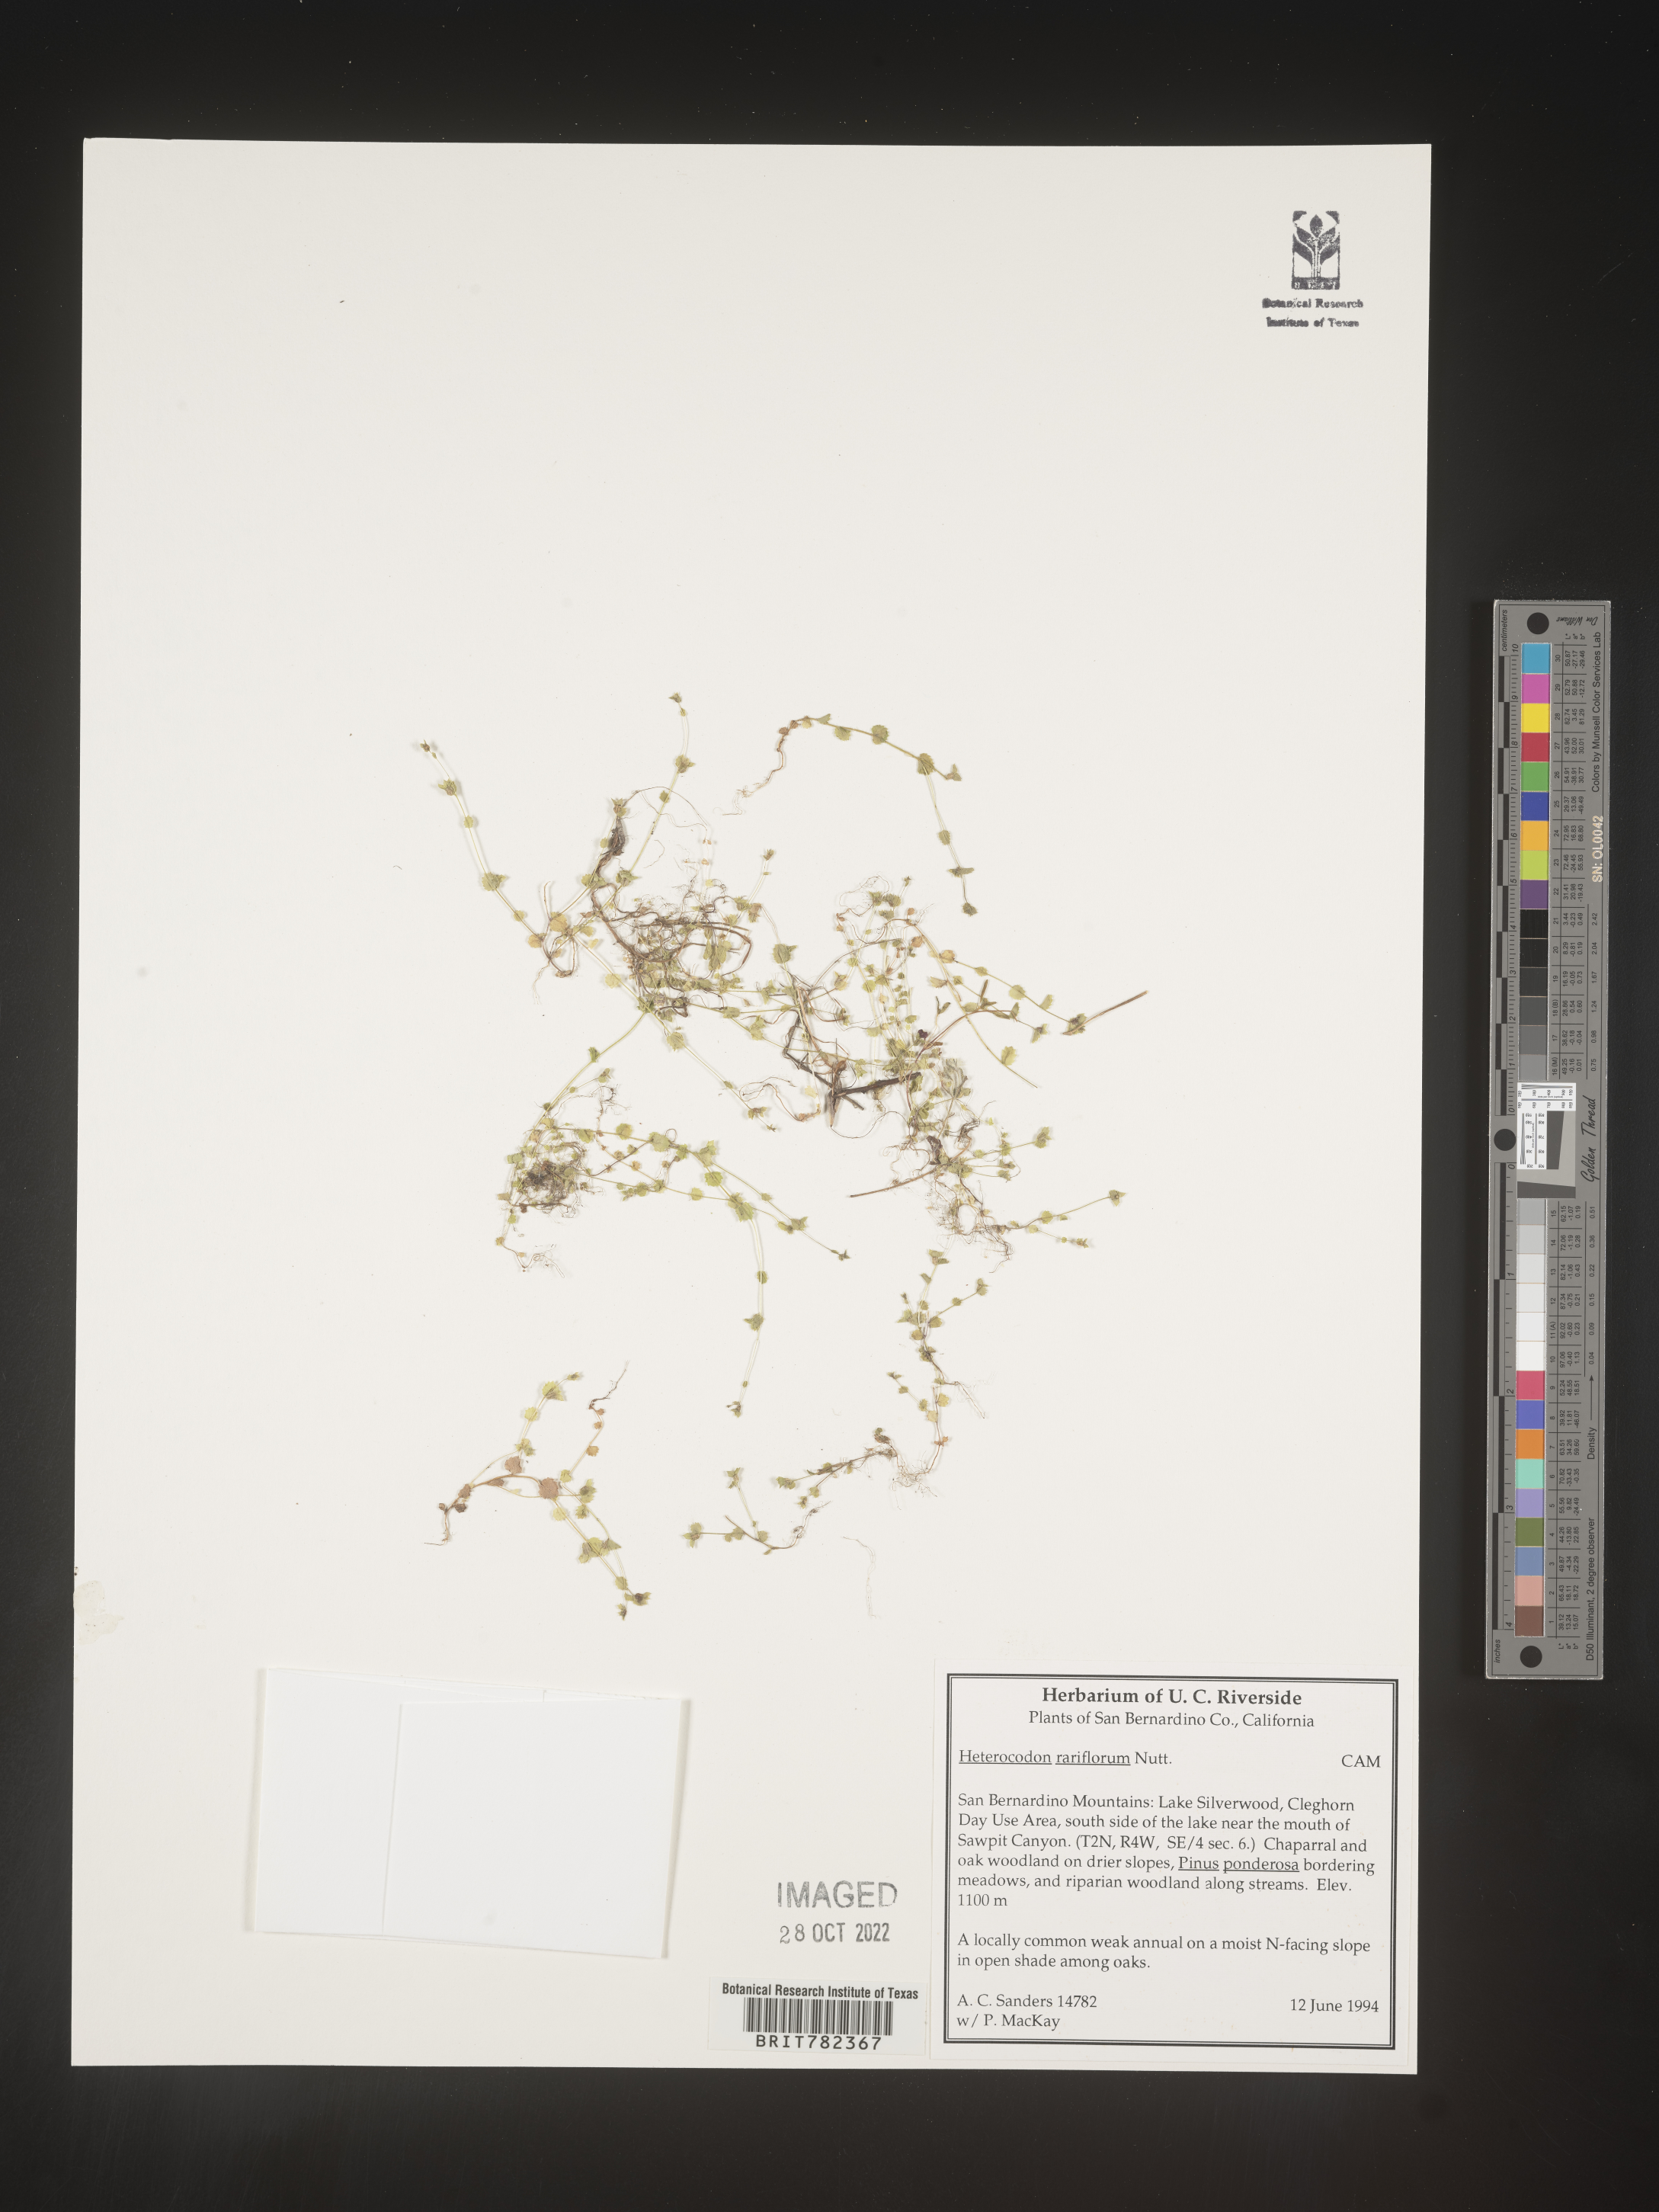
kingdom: Plantae
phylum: Tracheophyta
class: Magnoliopsida
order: Asterales
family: Campanulaceae
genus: Heterocodon
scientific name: Heterocodon
